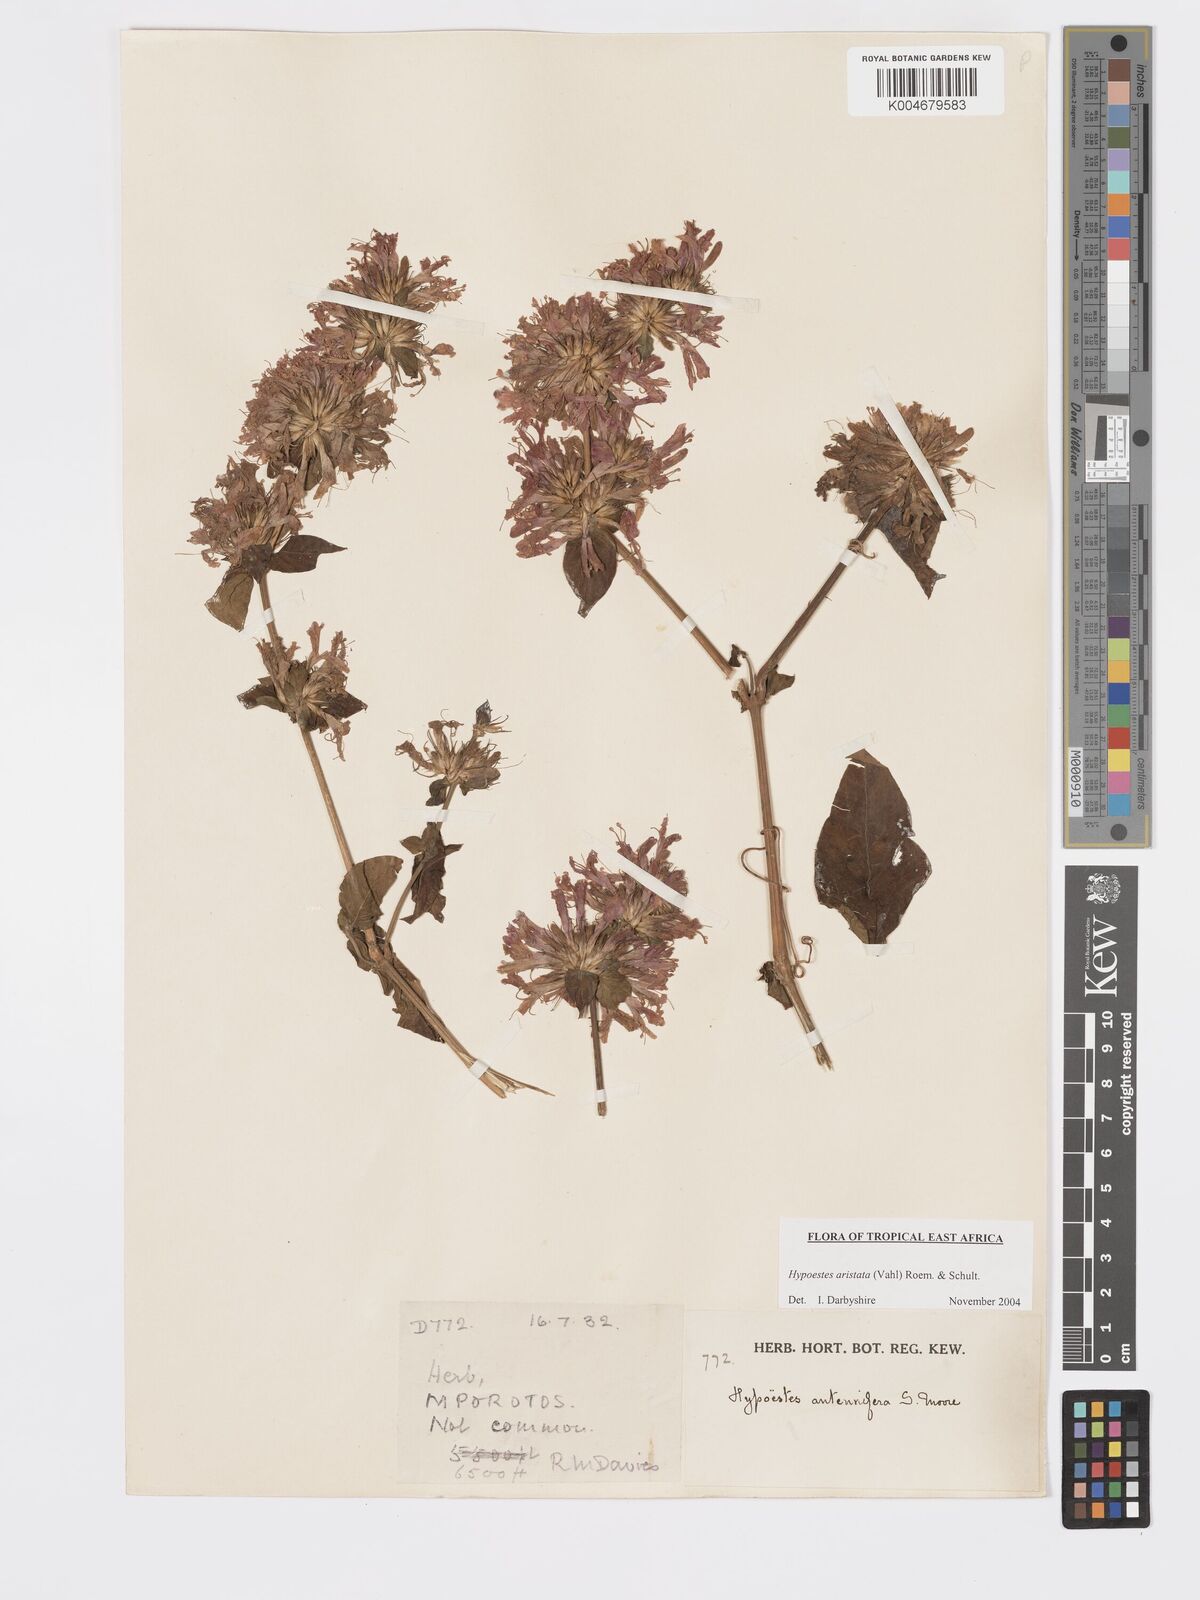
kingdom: Plantae
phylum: Tracheophyta
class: Magnoliopsida
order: Lamiales
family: Acanthaceae
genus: Hypoestes
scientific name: Hypoestes aristata
